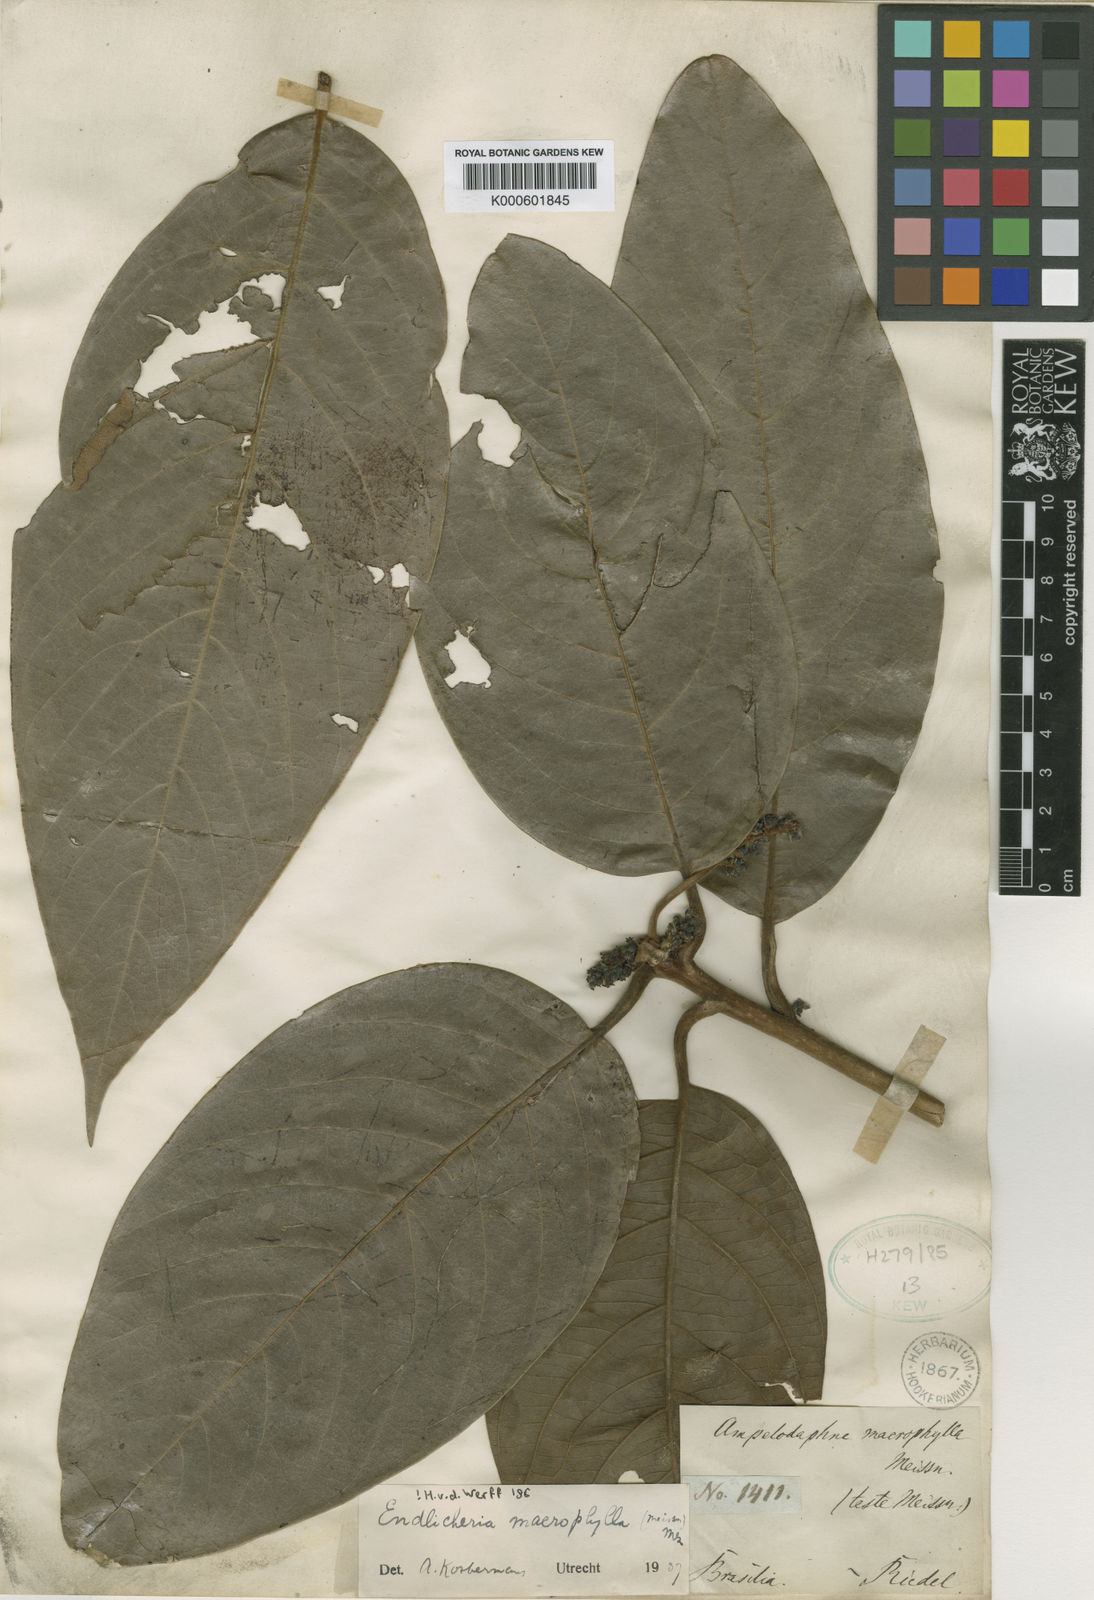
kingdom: Plantae
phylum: Tracheophyta
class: Magnoliopsida
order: Laurales
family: Lauraceae
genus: Endlicheria
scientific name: Endlicheria macrophylla
